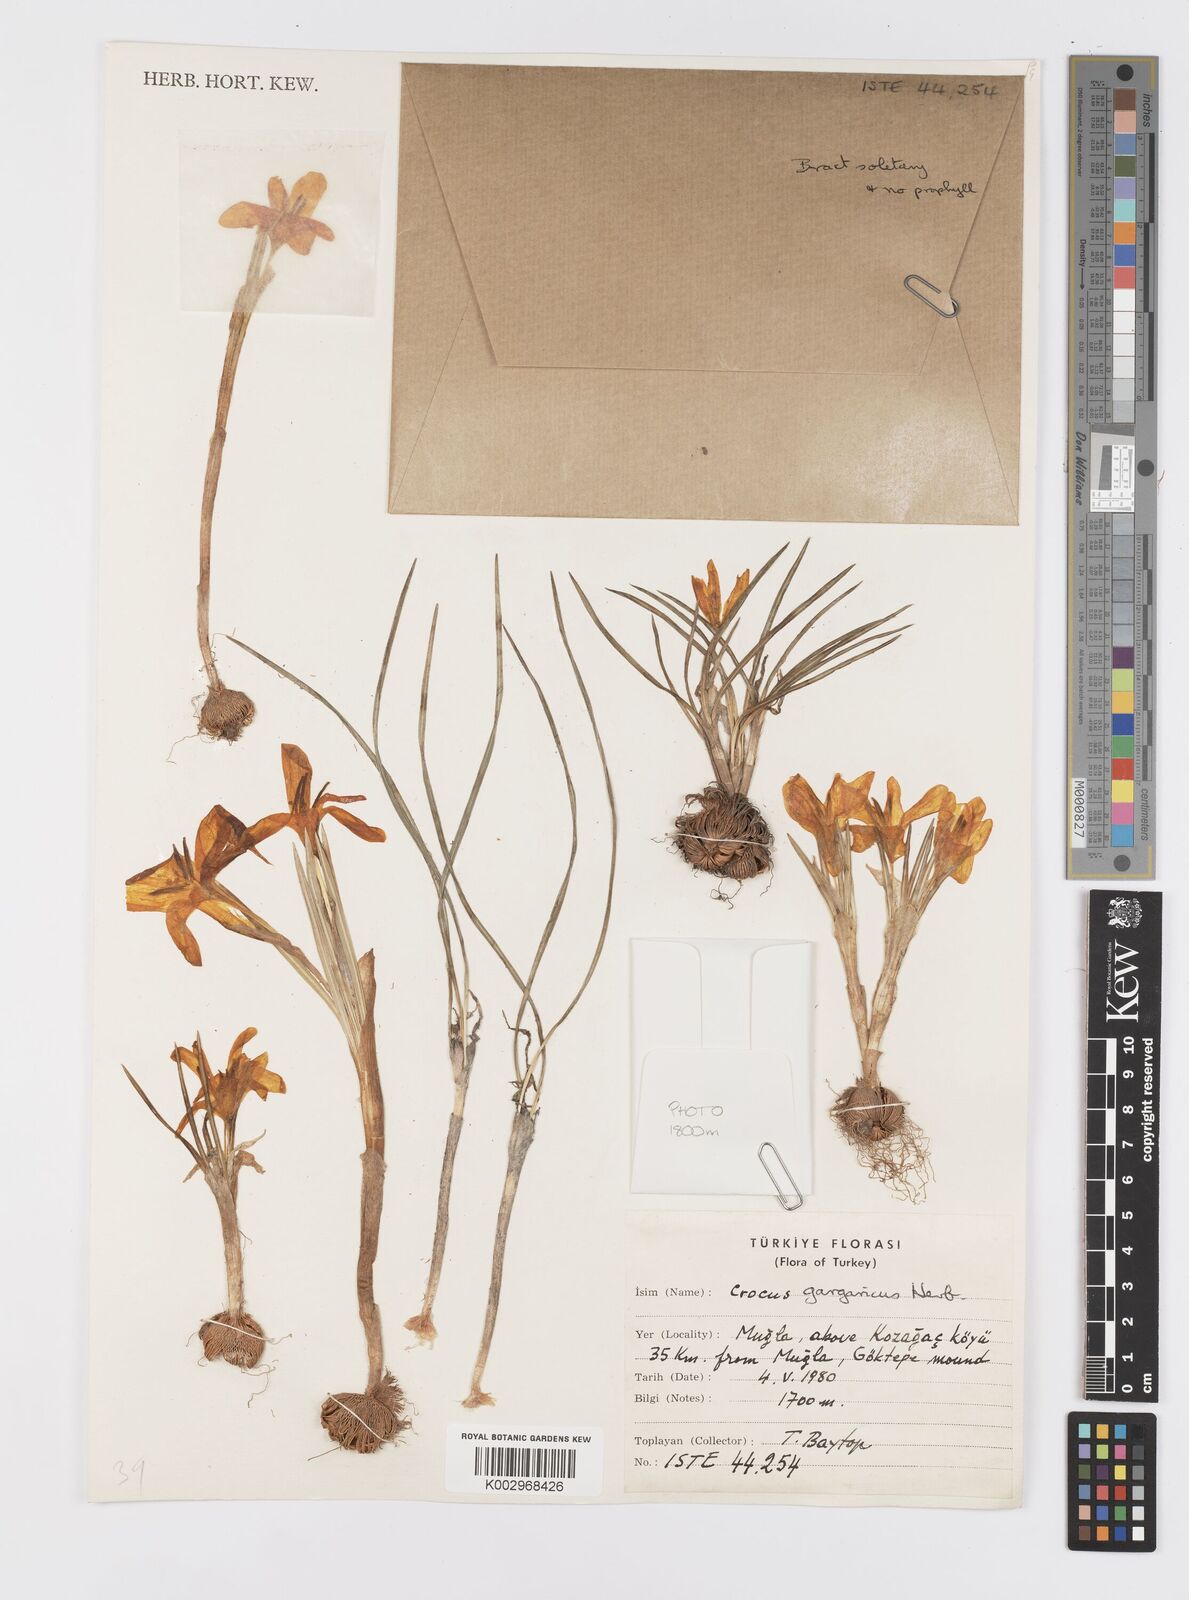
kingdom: Plantae
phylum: Tracheophyta
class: Liliopsida
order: Asparagales
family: Iridaceae
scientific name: Iridaceae
